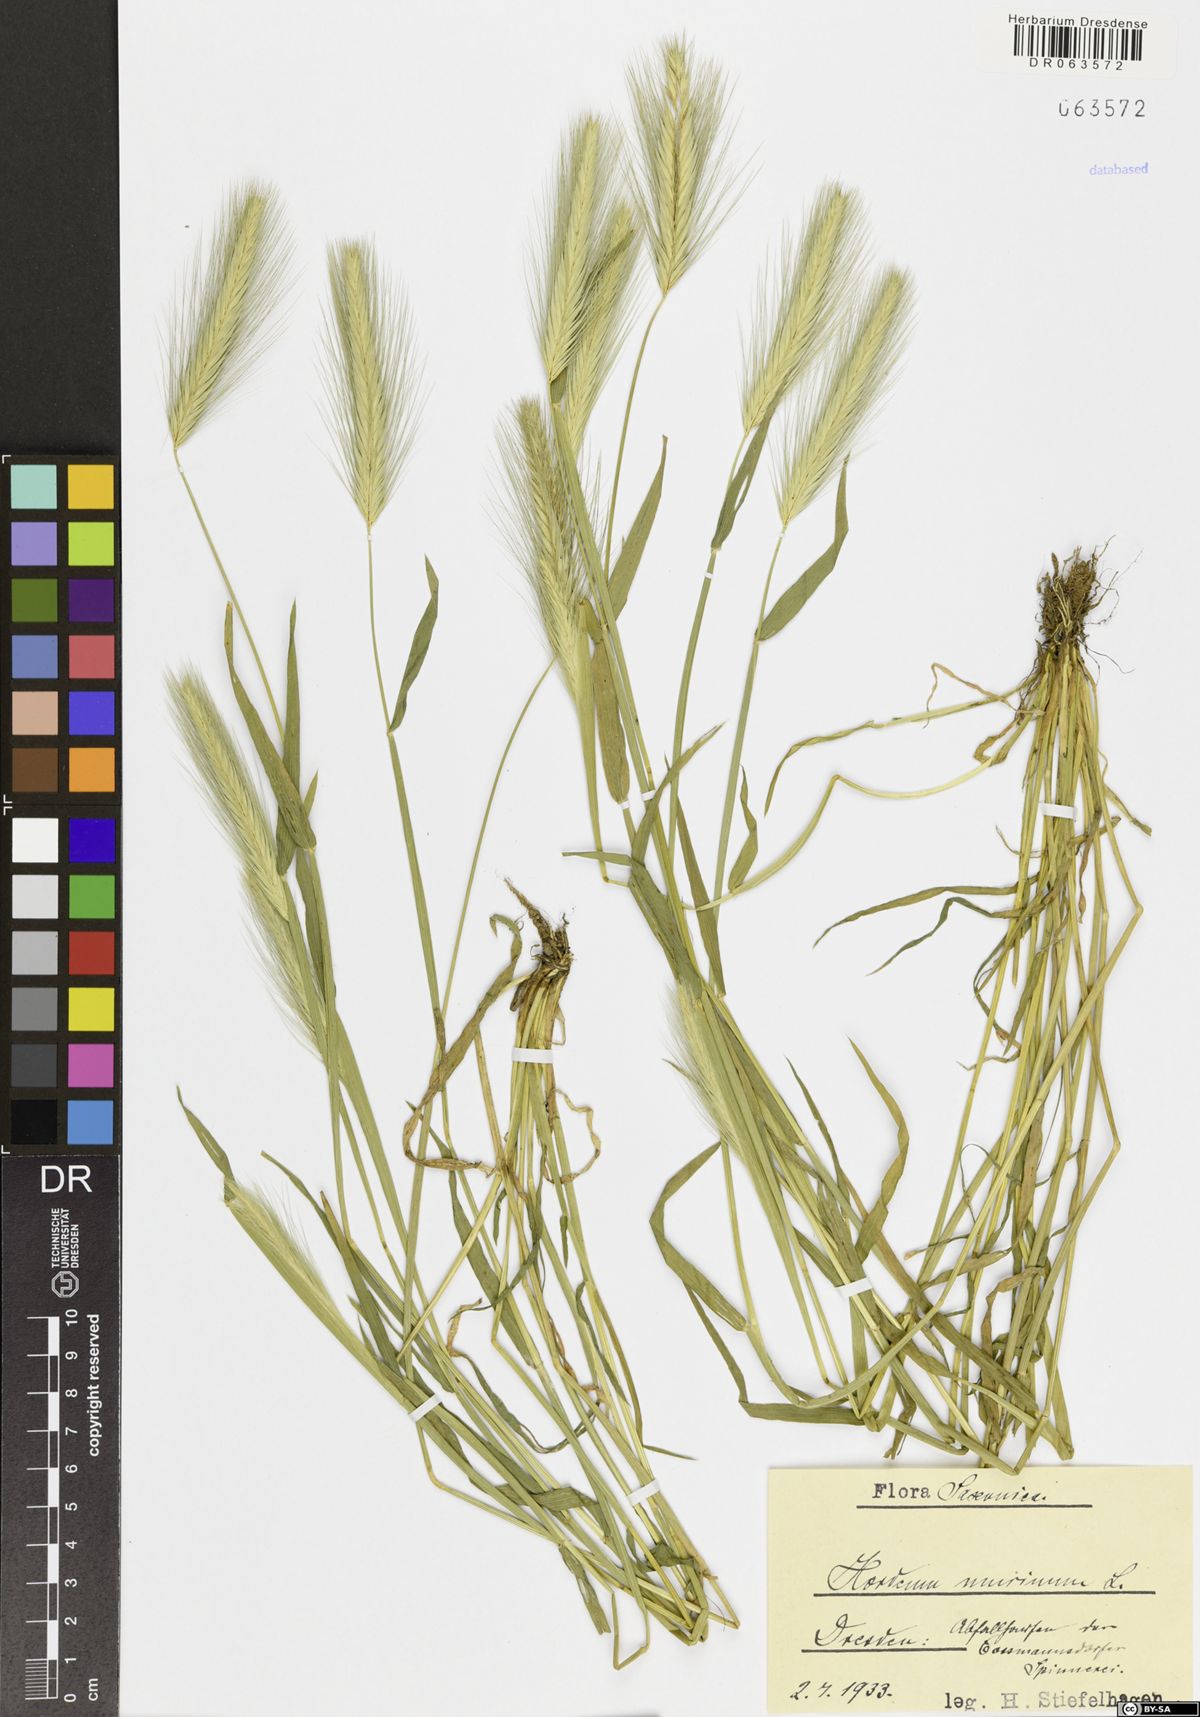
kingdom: Plantae
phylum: Tracheophyta
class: Liliopsida
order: Poales
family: Poaceae
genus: Hordeum
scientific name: Hordeum murinum
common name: Wall barley
